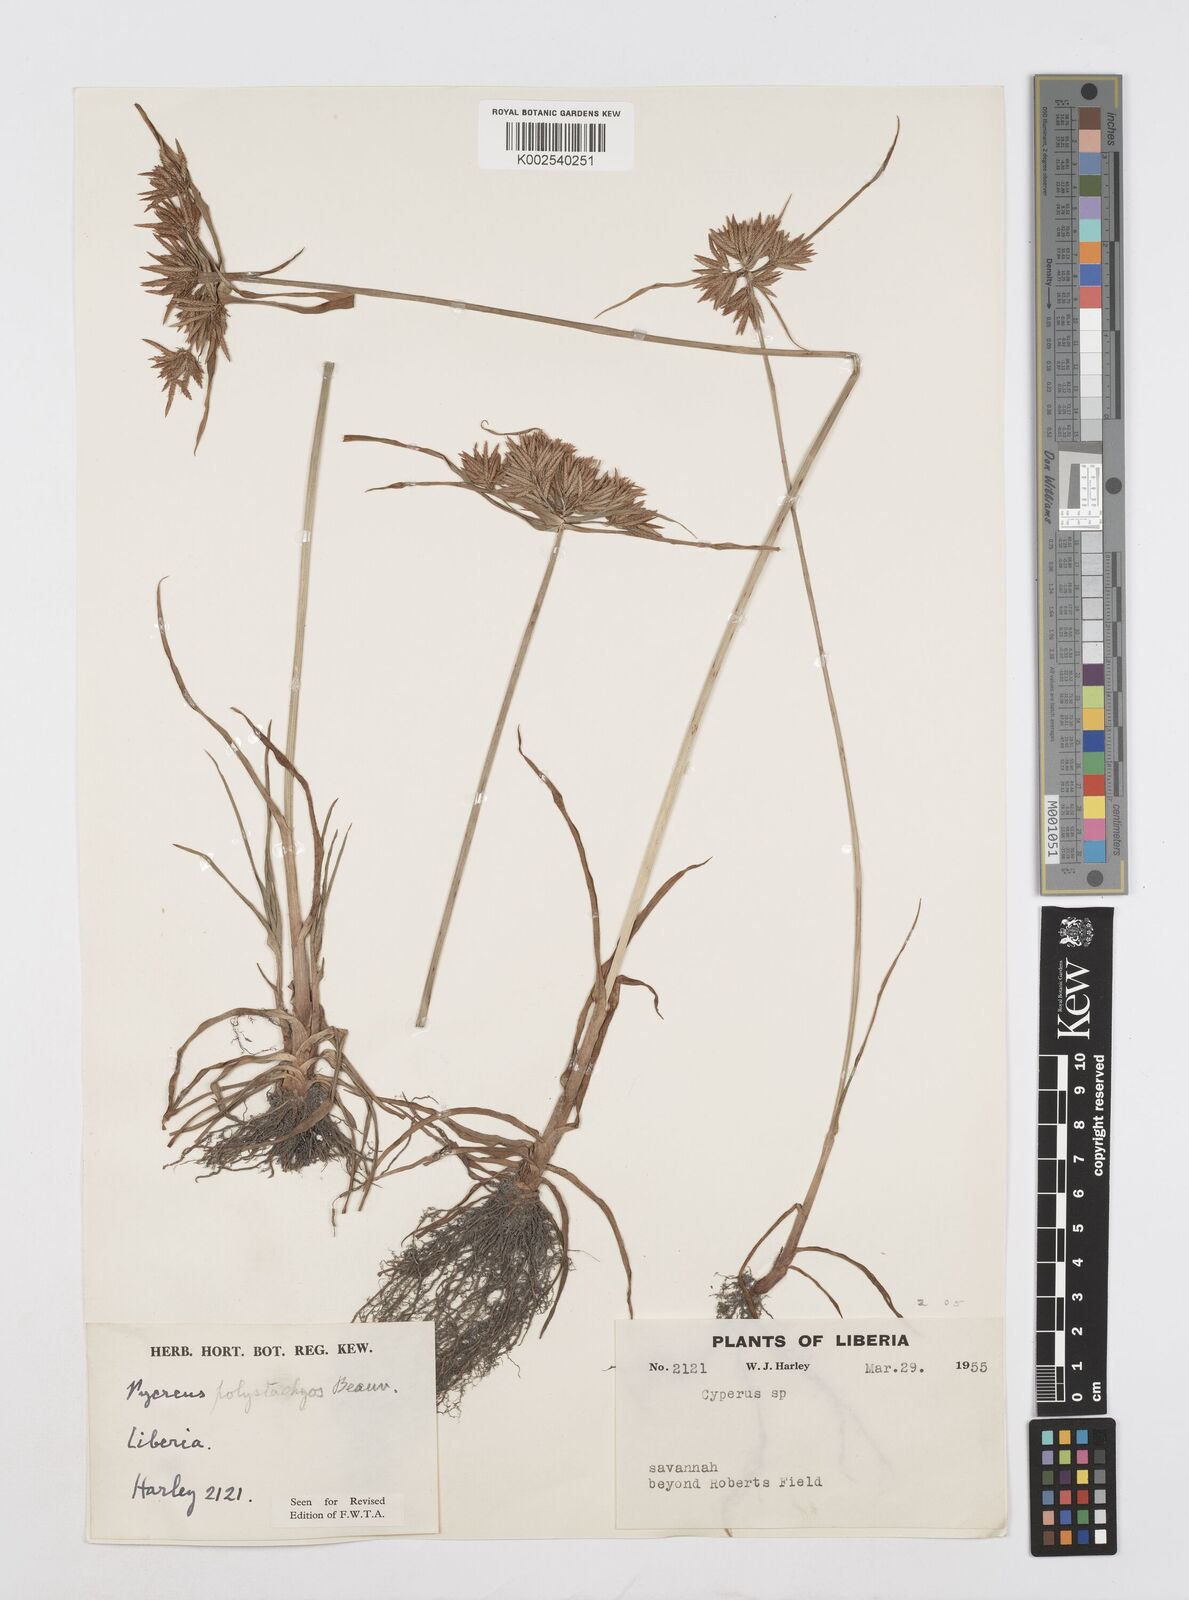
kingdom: Plantae
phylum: Tracheophyta
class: Liliopsida
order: Poales
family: Cyperaceae
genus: Cyperus
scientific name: Cyperus polystachyos
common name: Bunchy flat sedge
